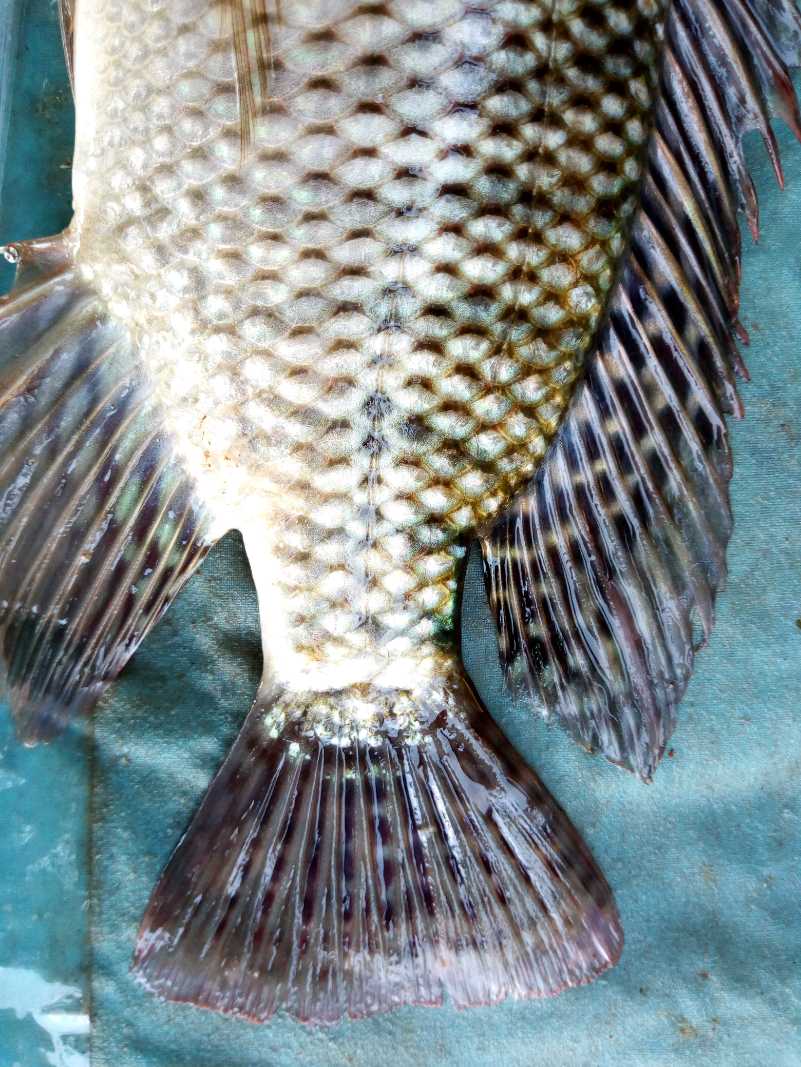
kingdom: Animalia
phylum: Chordata
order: Perciformes
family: Cichlidae
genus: Oreochromis
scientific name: Oreochromis niloticus
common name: Nile tilapia
